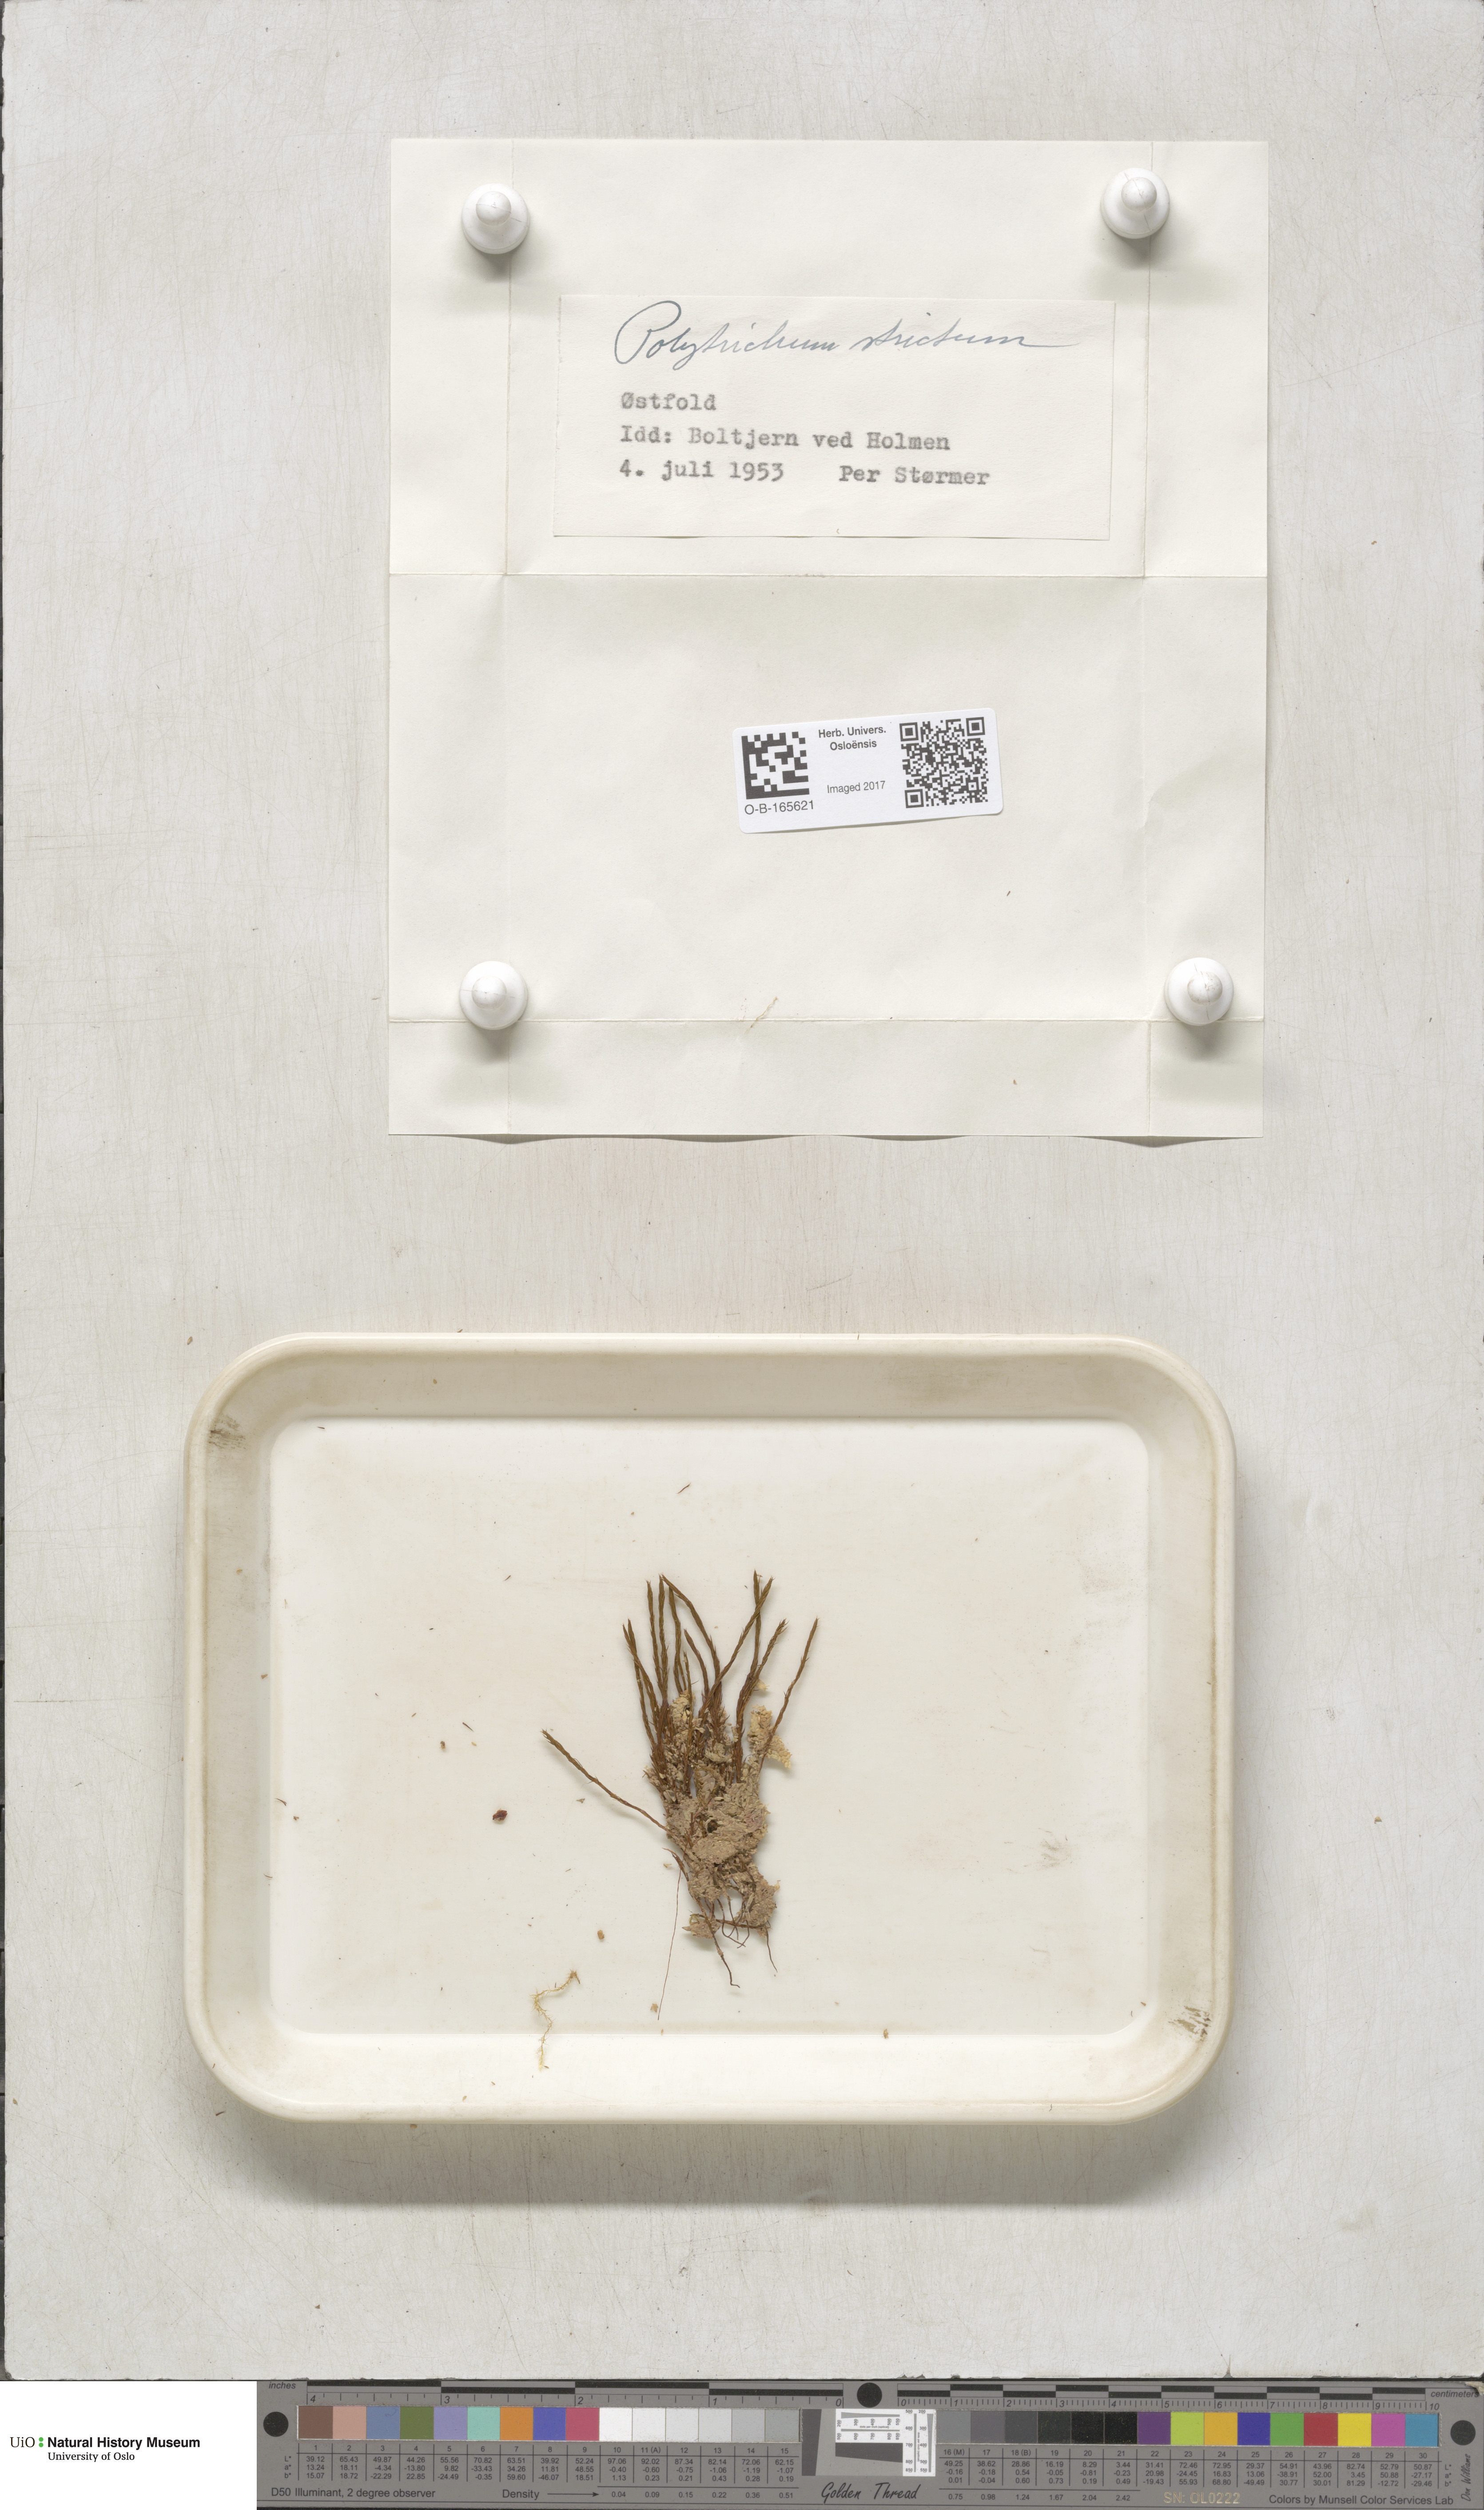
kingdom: Plantae
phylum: Bryophyta
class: Polytrichopsida
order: Polytrichales
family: Polytrichaceae
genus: Polytrichum
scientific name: Polytrichum strictum
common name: Bog haircap moss
